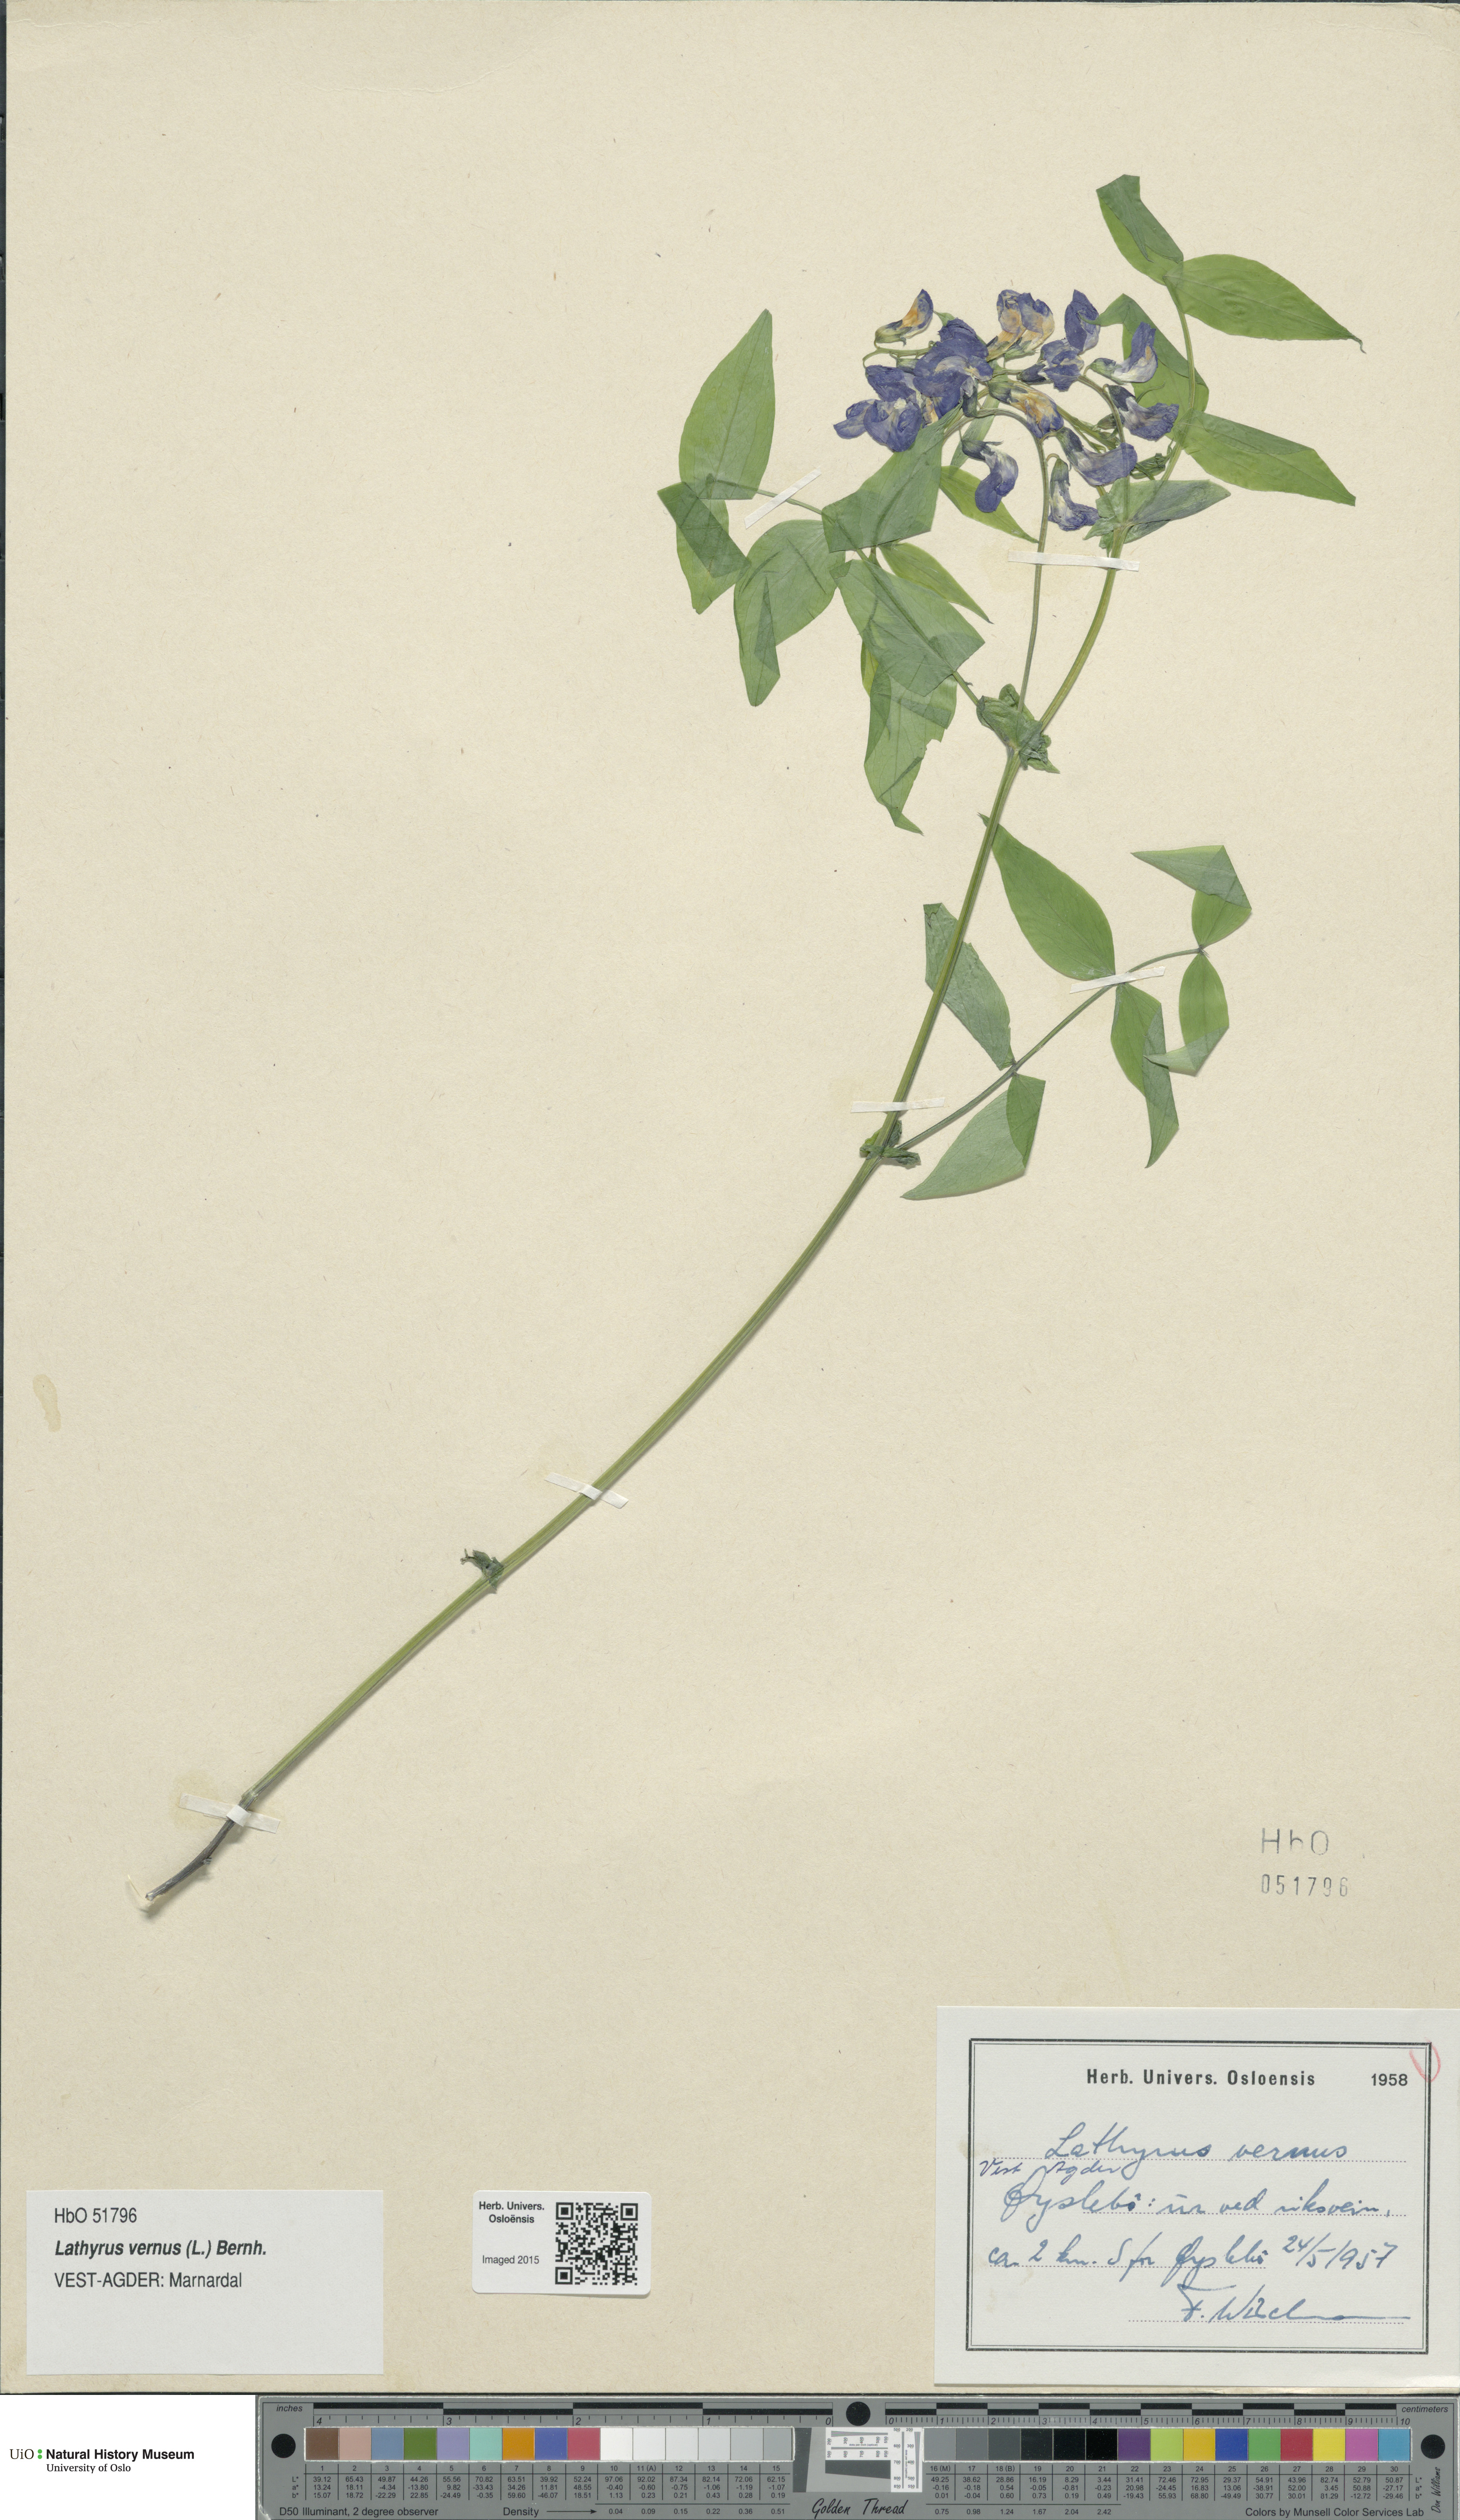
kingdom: Plantae
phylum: Tracheophyta
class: Magnoliopsida
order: Fabales
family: Fabaceae
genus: Lathyrus
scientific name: Lathyrus vernus
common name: Spring pea
